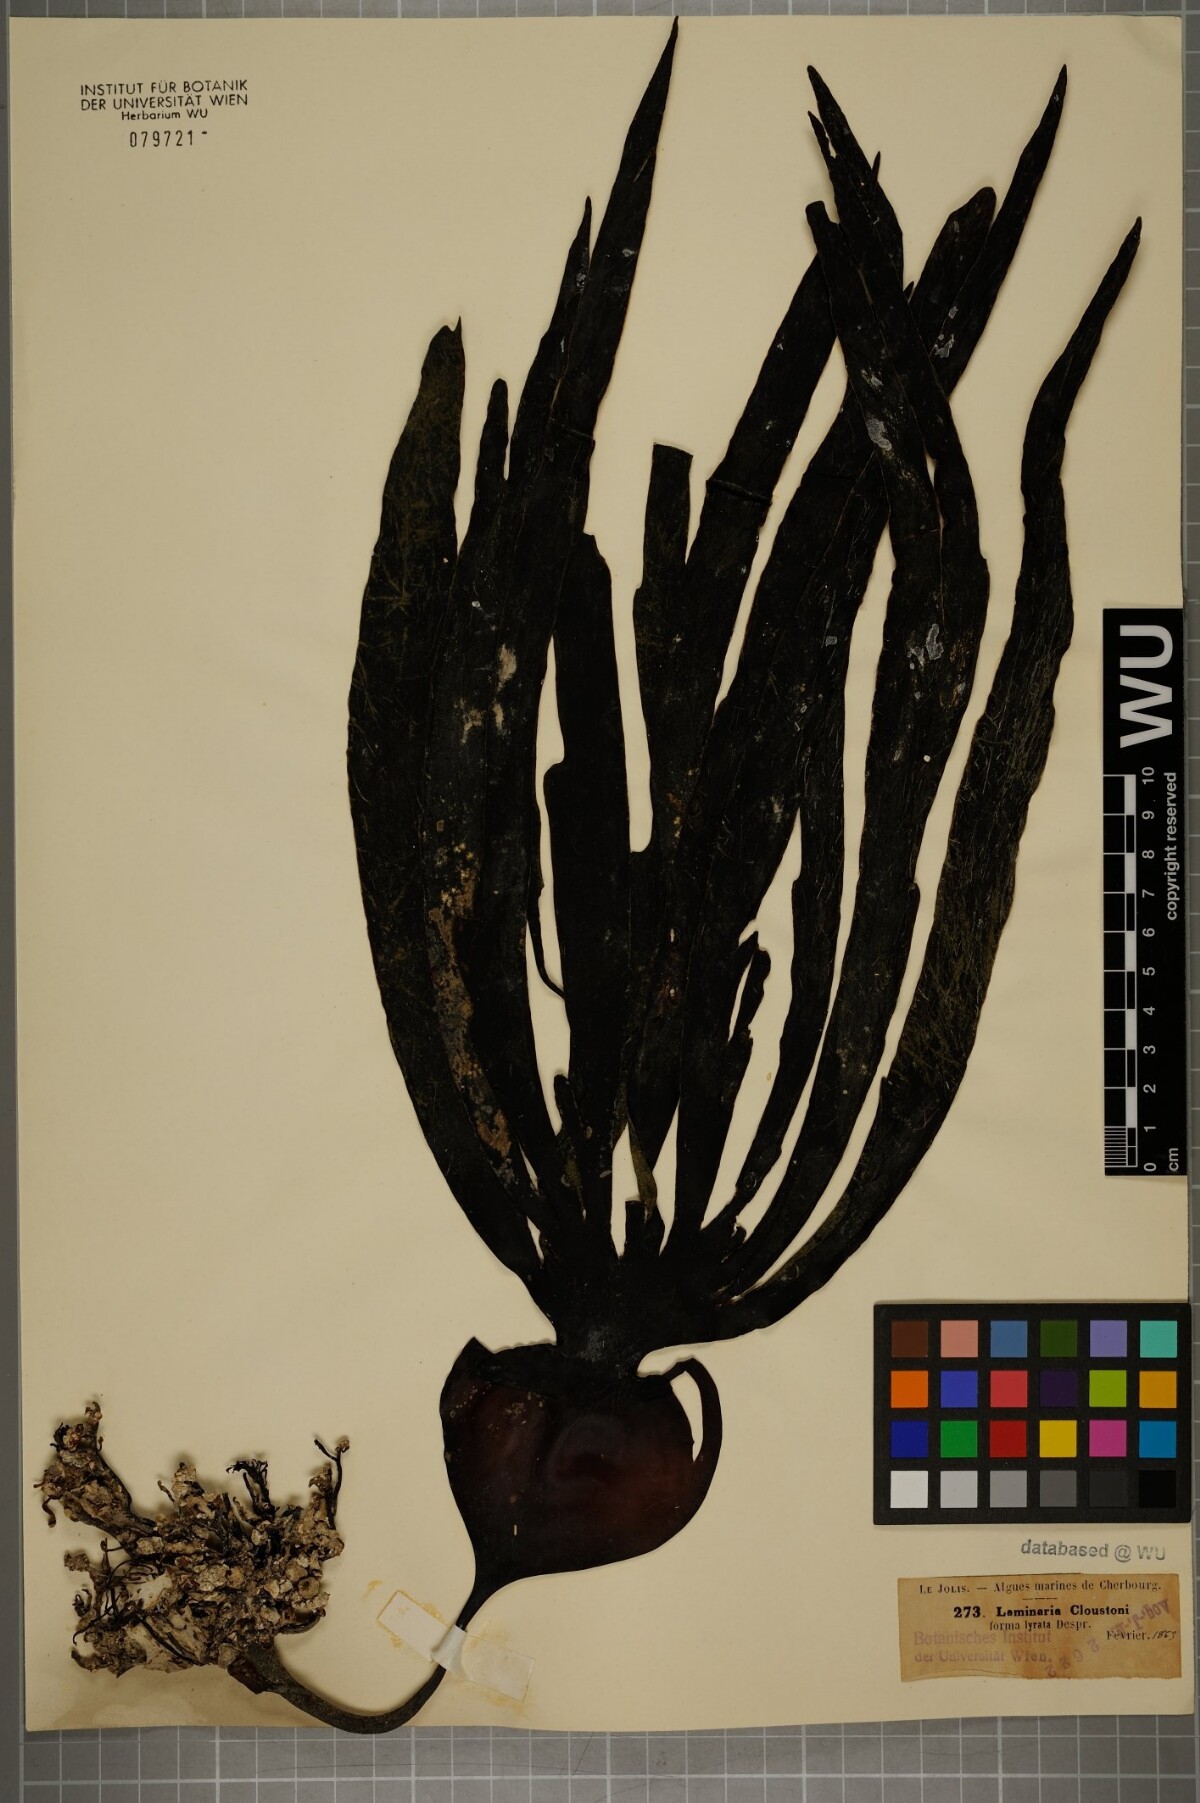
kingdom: Chromista
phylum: Ochrophyta
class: Phaeophyceae
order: Laminariales
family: Laminariaceae
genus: Laminaria
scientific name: Laminaria hyperborea
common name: Cuvie
